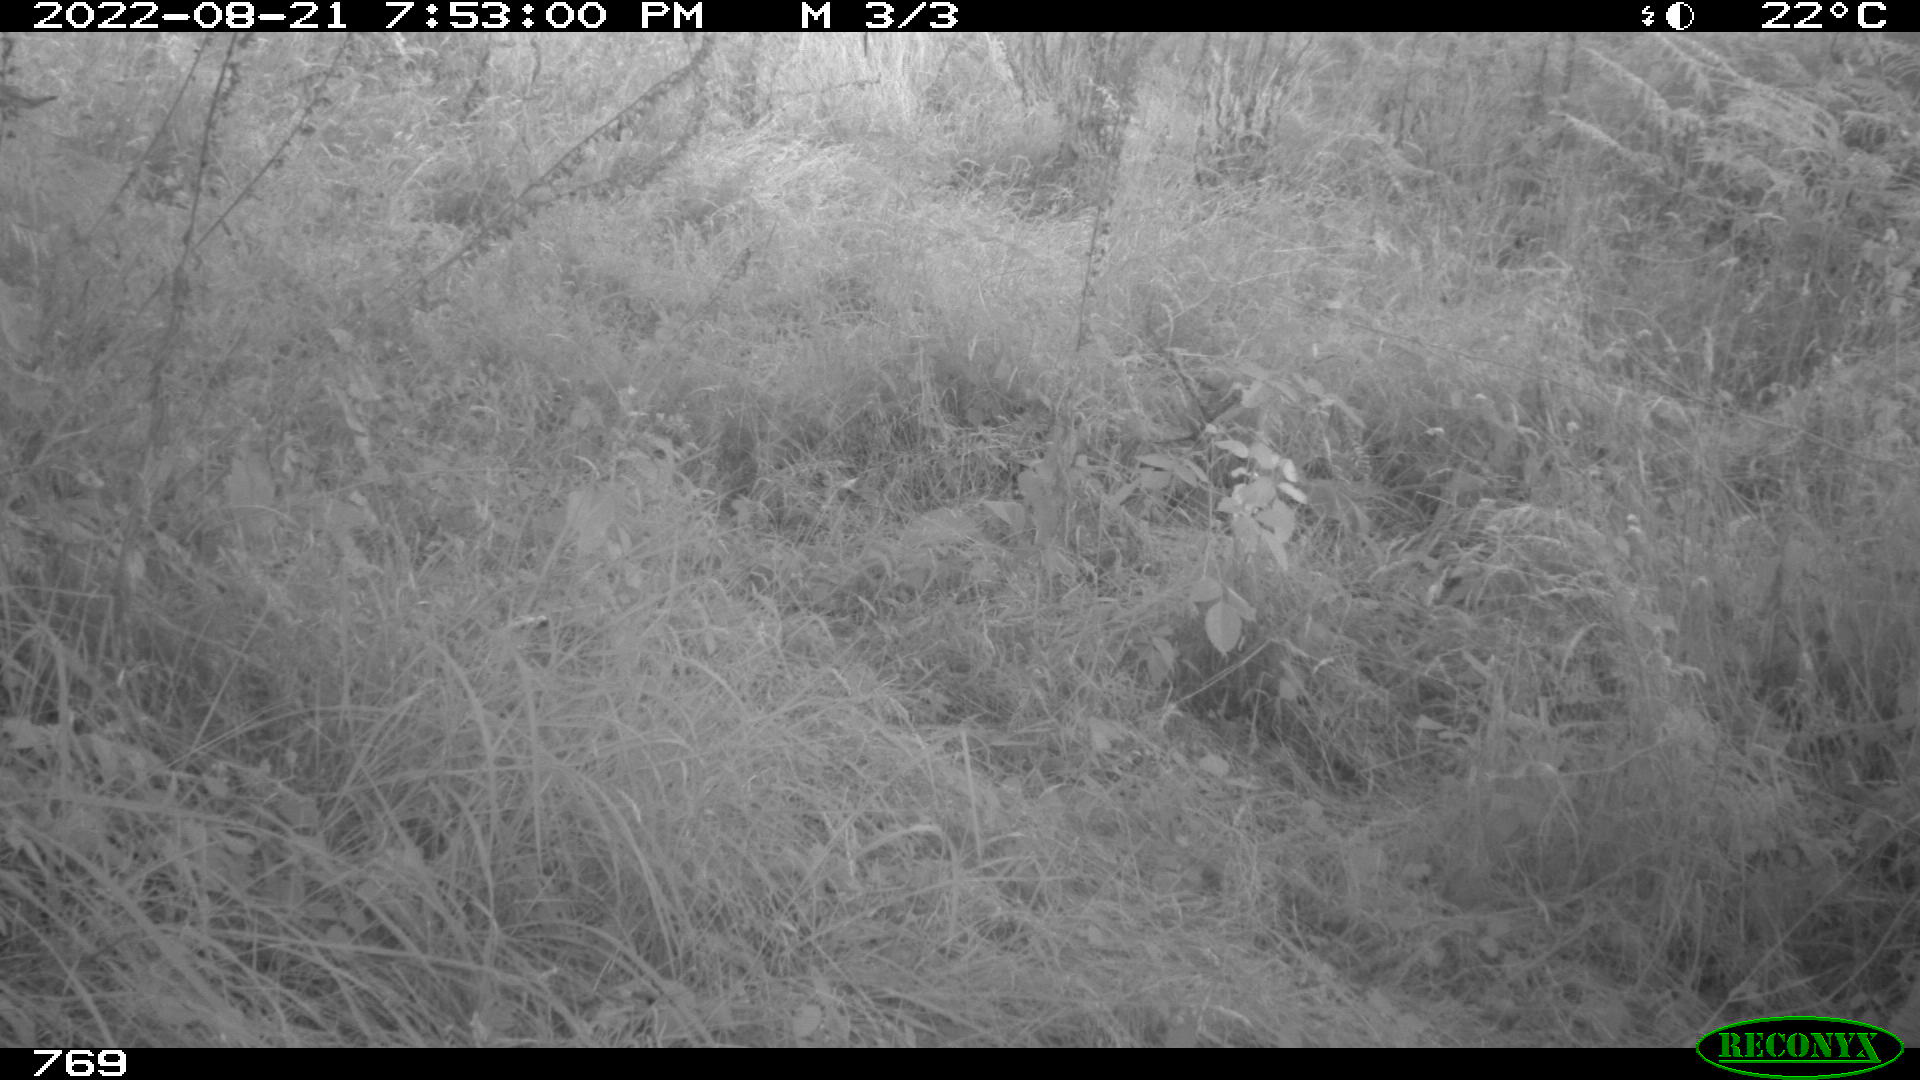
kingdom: Animalia
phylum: Chordata
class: Mammalia
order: Artiodactyla
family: Suidae
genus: Sus
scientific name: Sus scrofa
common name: Wild boar
